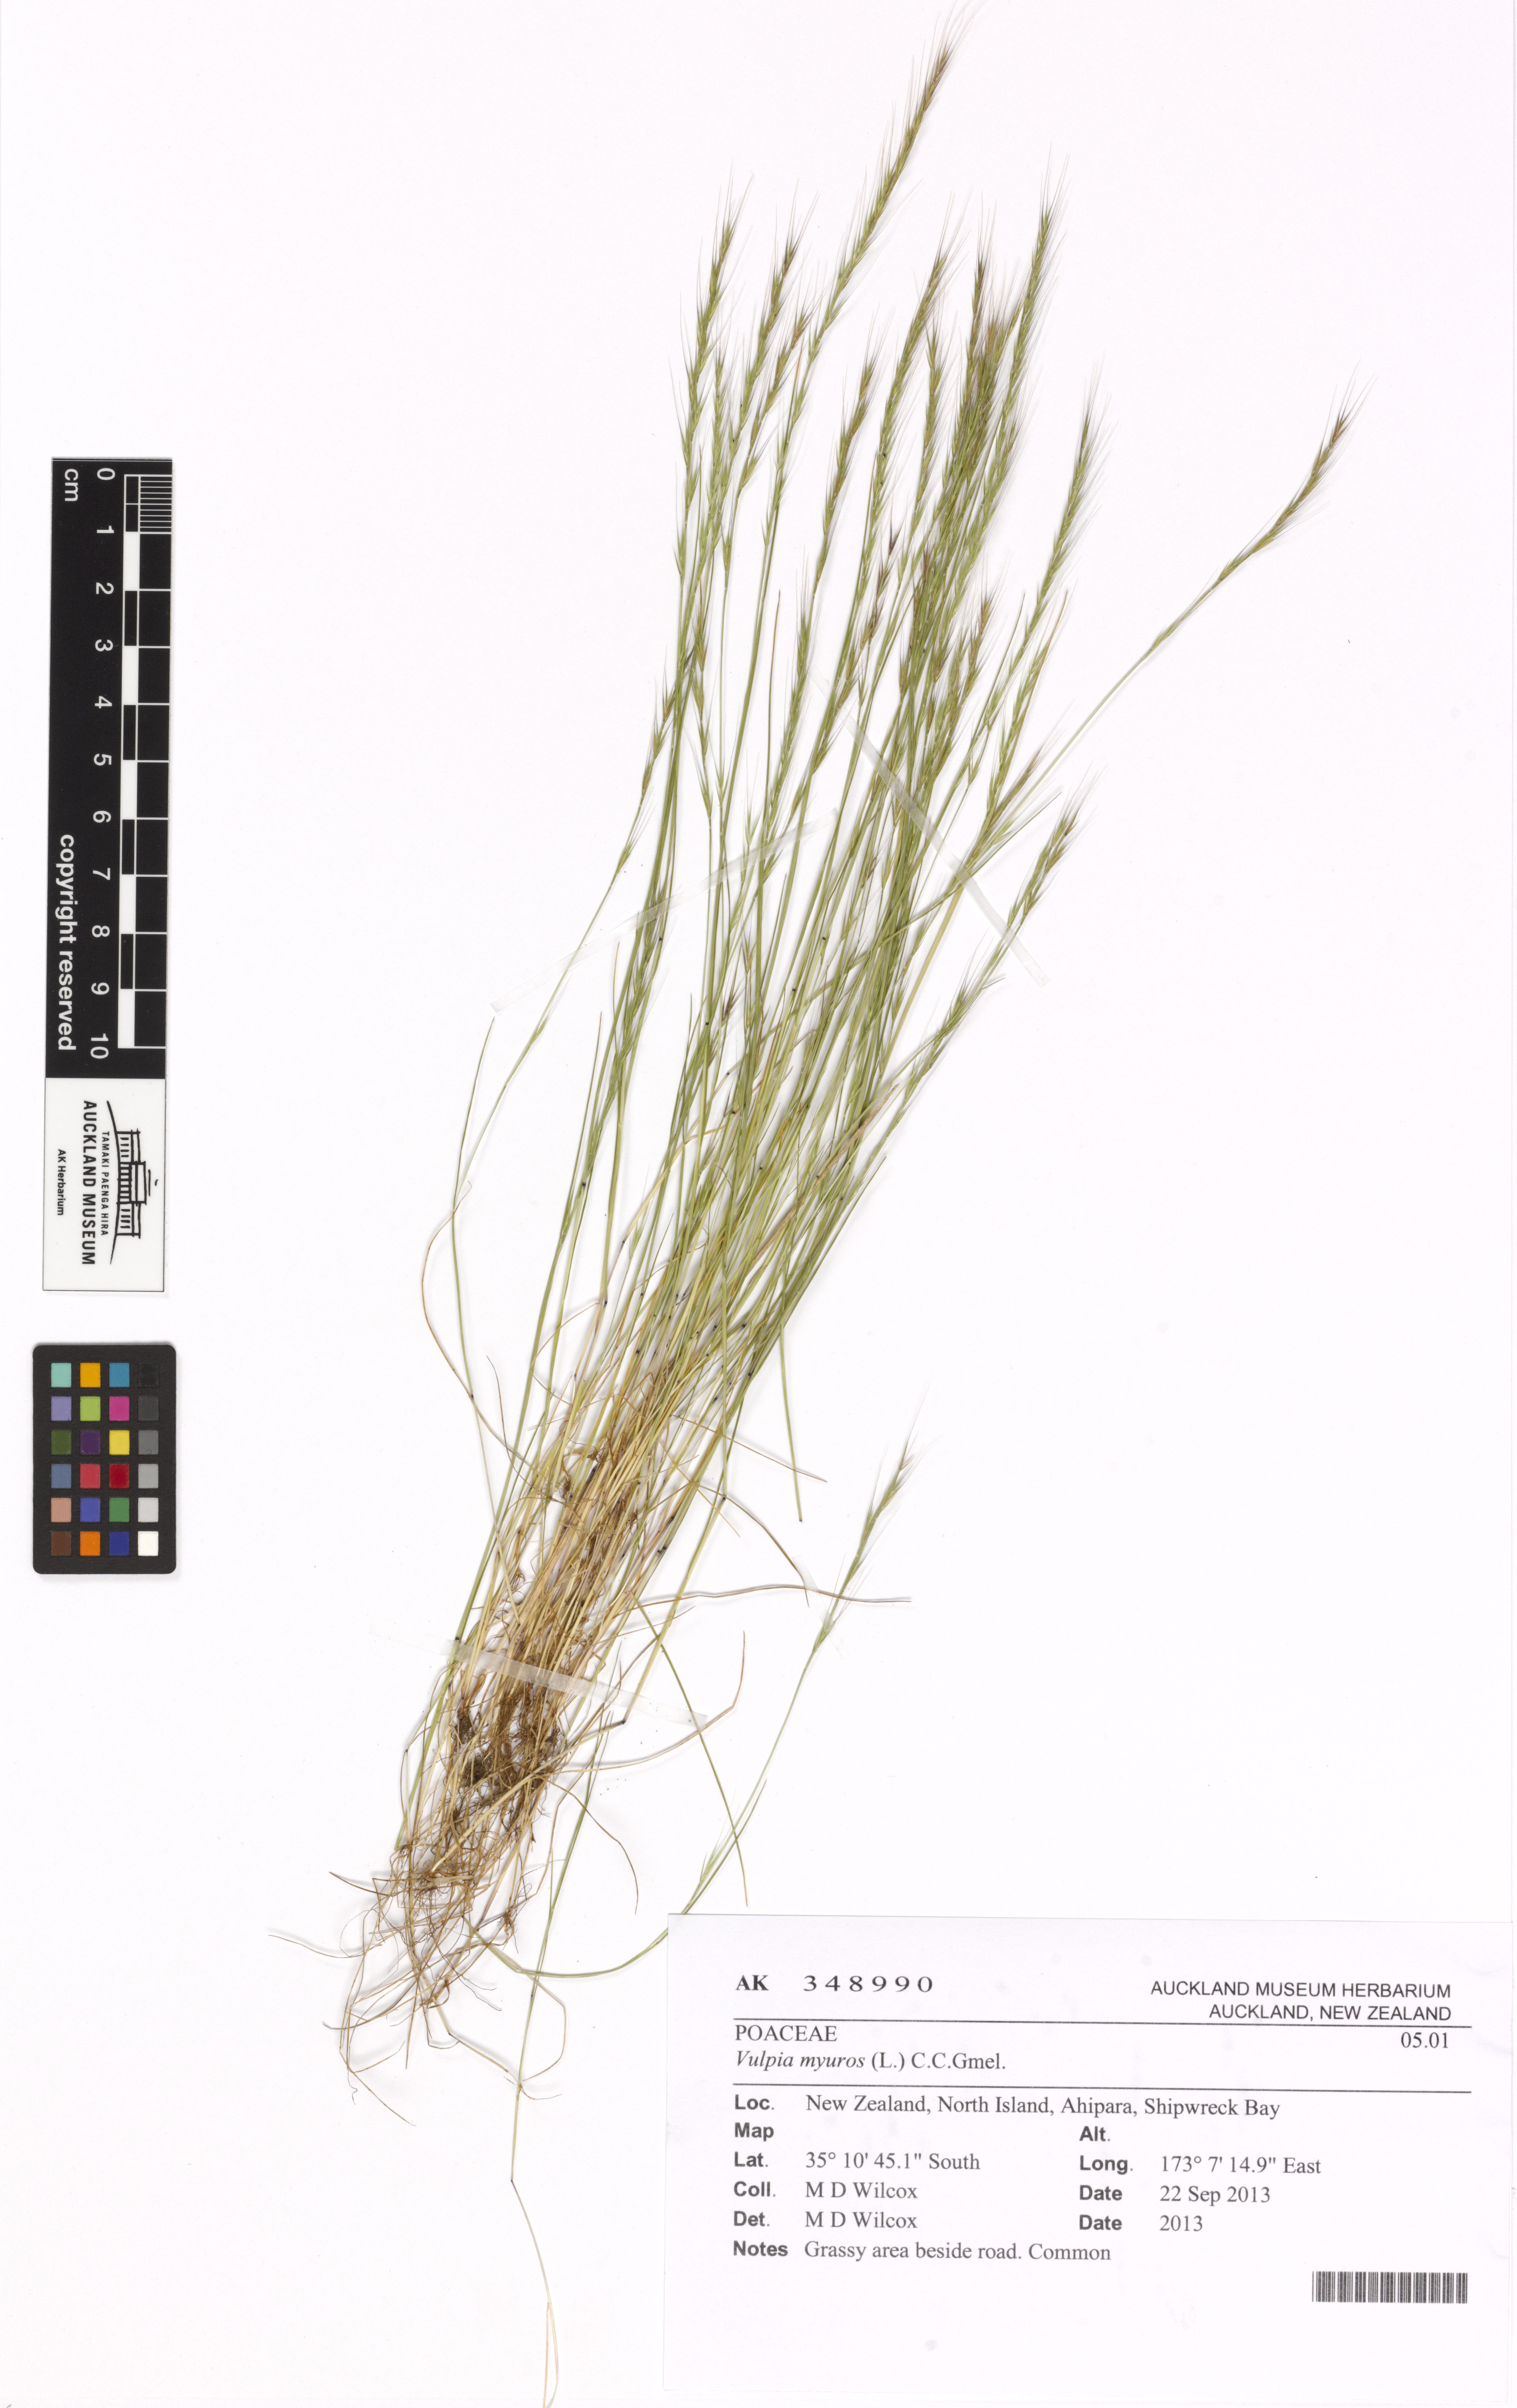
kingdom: Plantae
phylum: Tracheophyta
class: Liliopsida
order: Poales
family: Poaceae
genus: Festuca
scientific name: Festuca myuros
